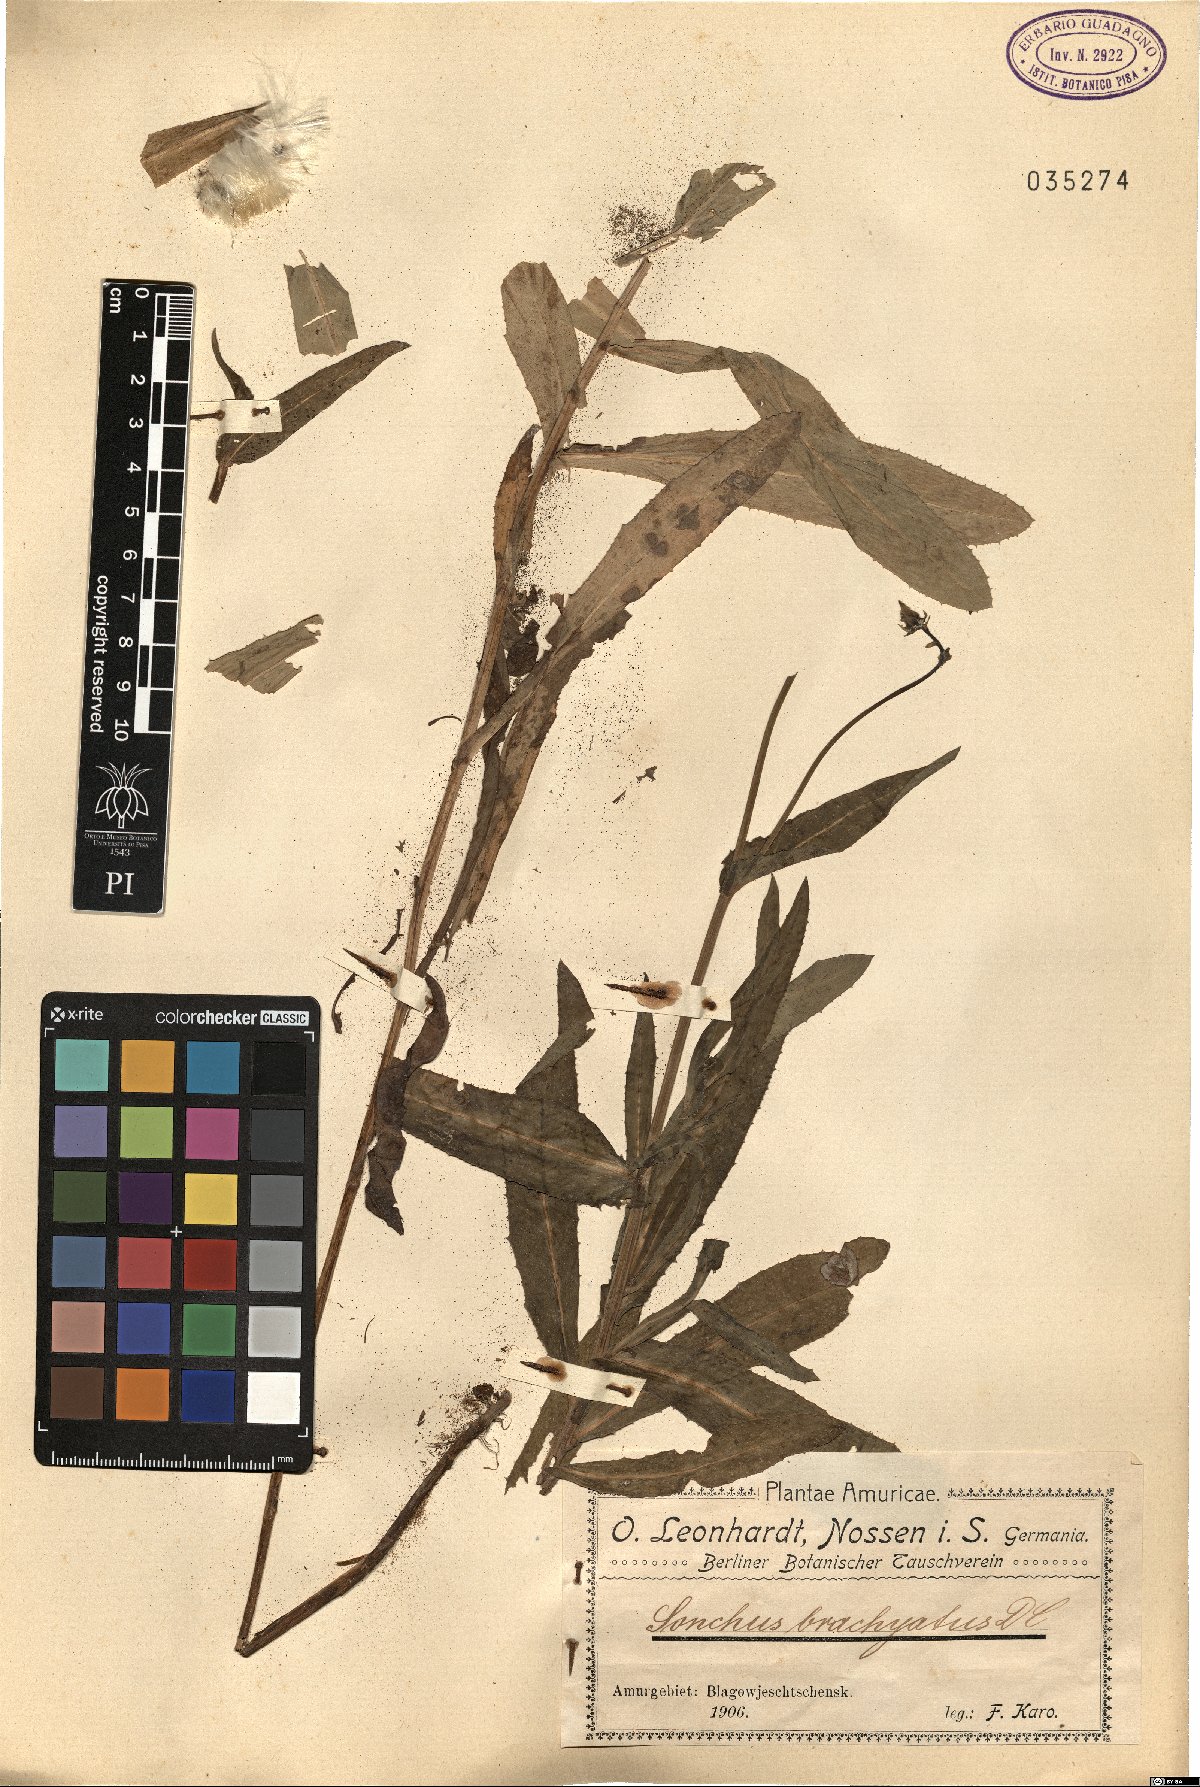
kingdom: Plantae
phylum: Tracheophyta
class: Magnoliopsida
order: Asterales
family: Asteraceae
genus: Sonchus
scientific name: Sonchus brachyotus
